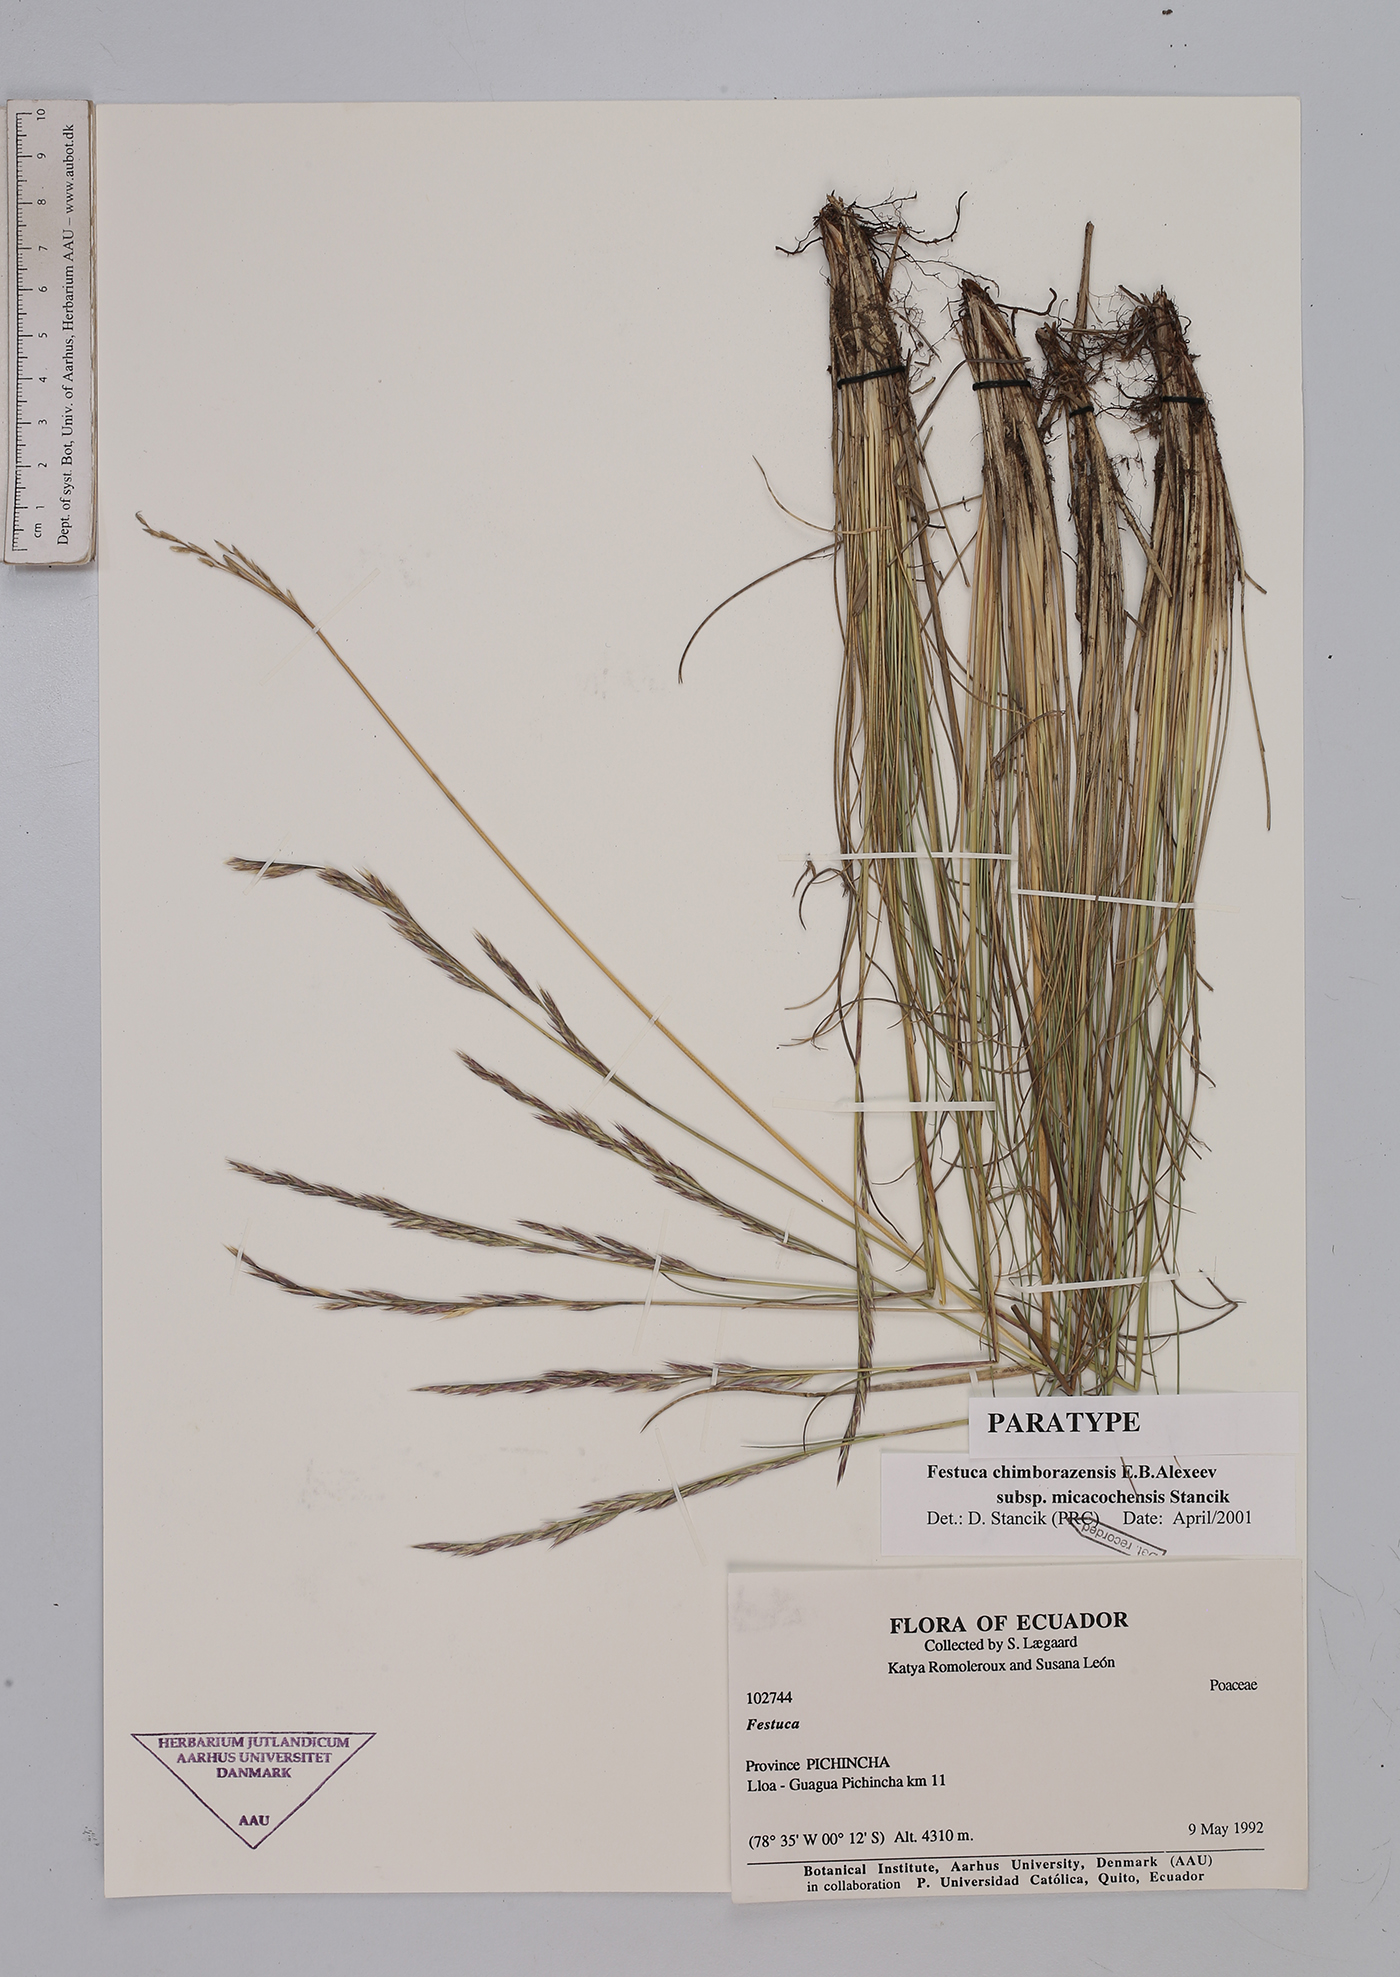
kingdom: Plantae
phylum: Tracheophyta
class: Liliopsida
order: Poales
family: Poaceae
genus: Festuca
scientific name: Festuca chimborazensis
